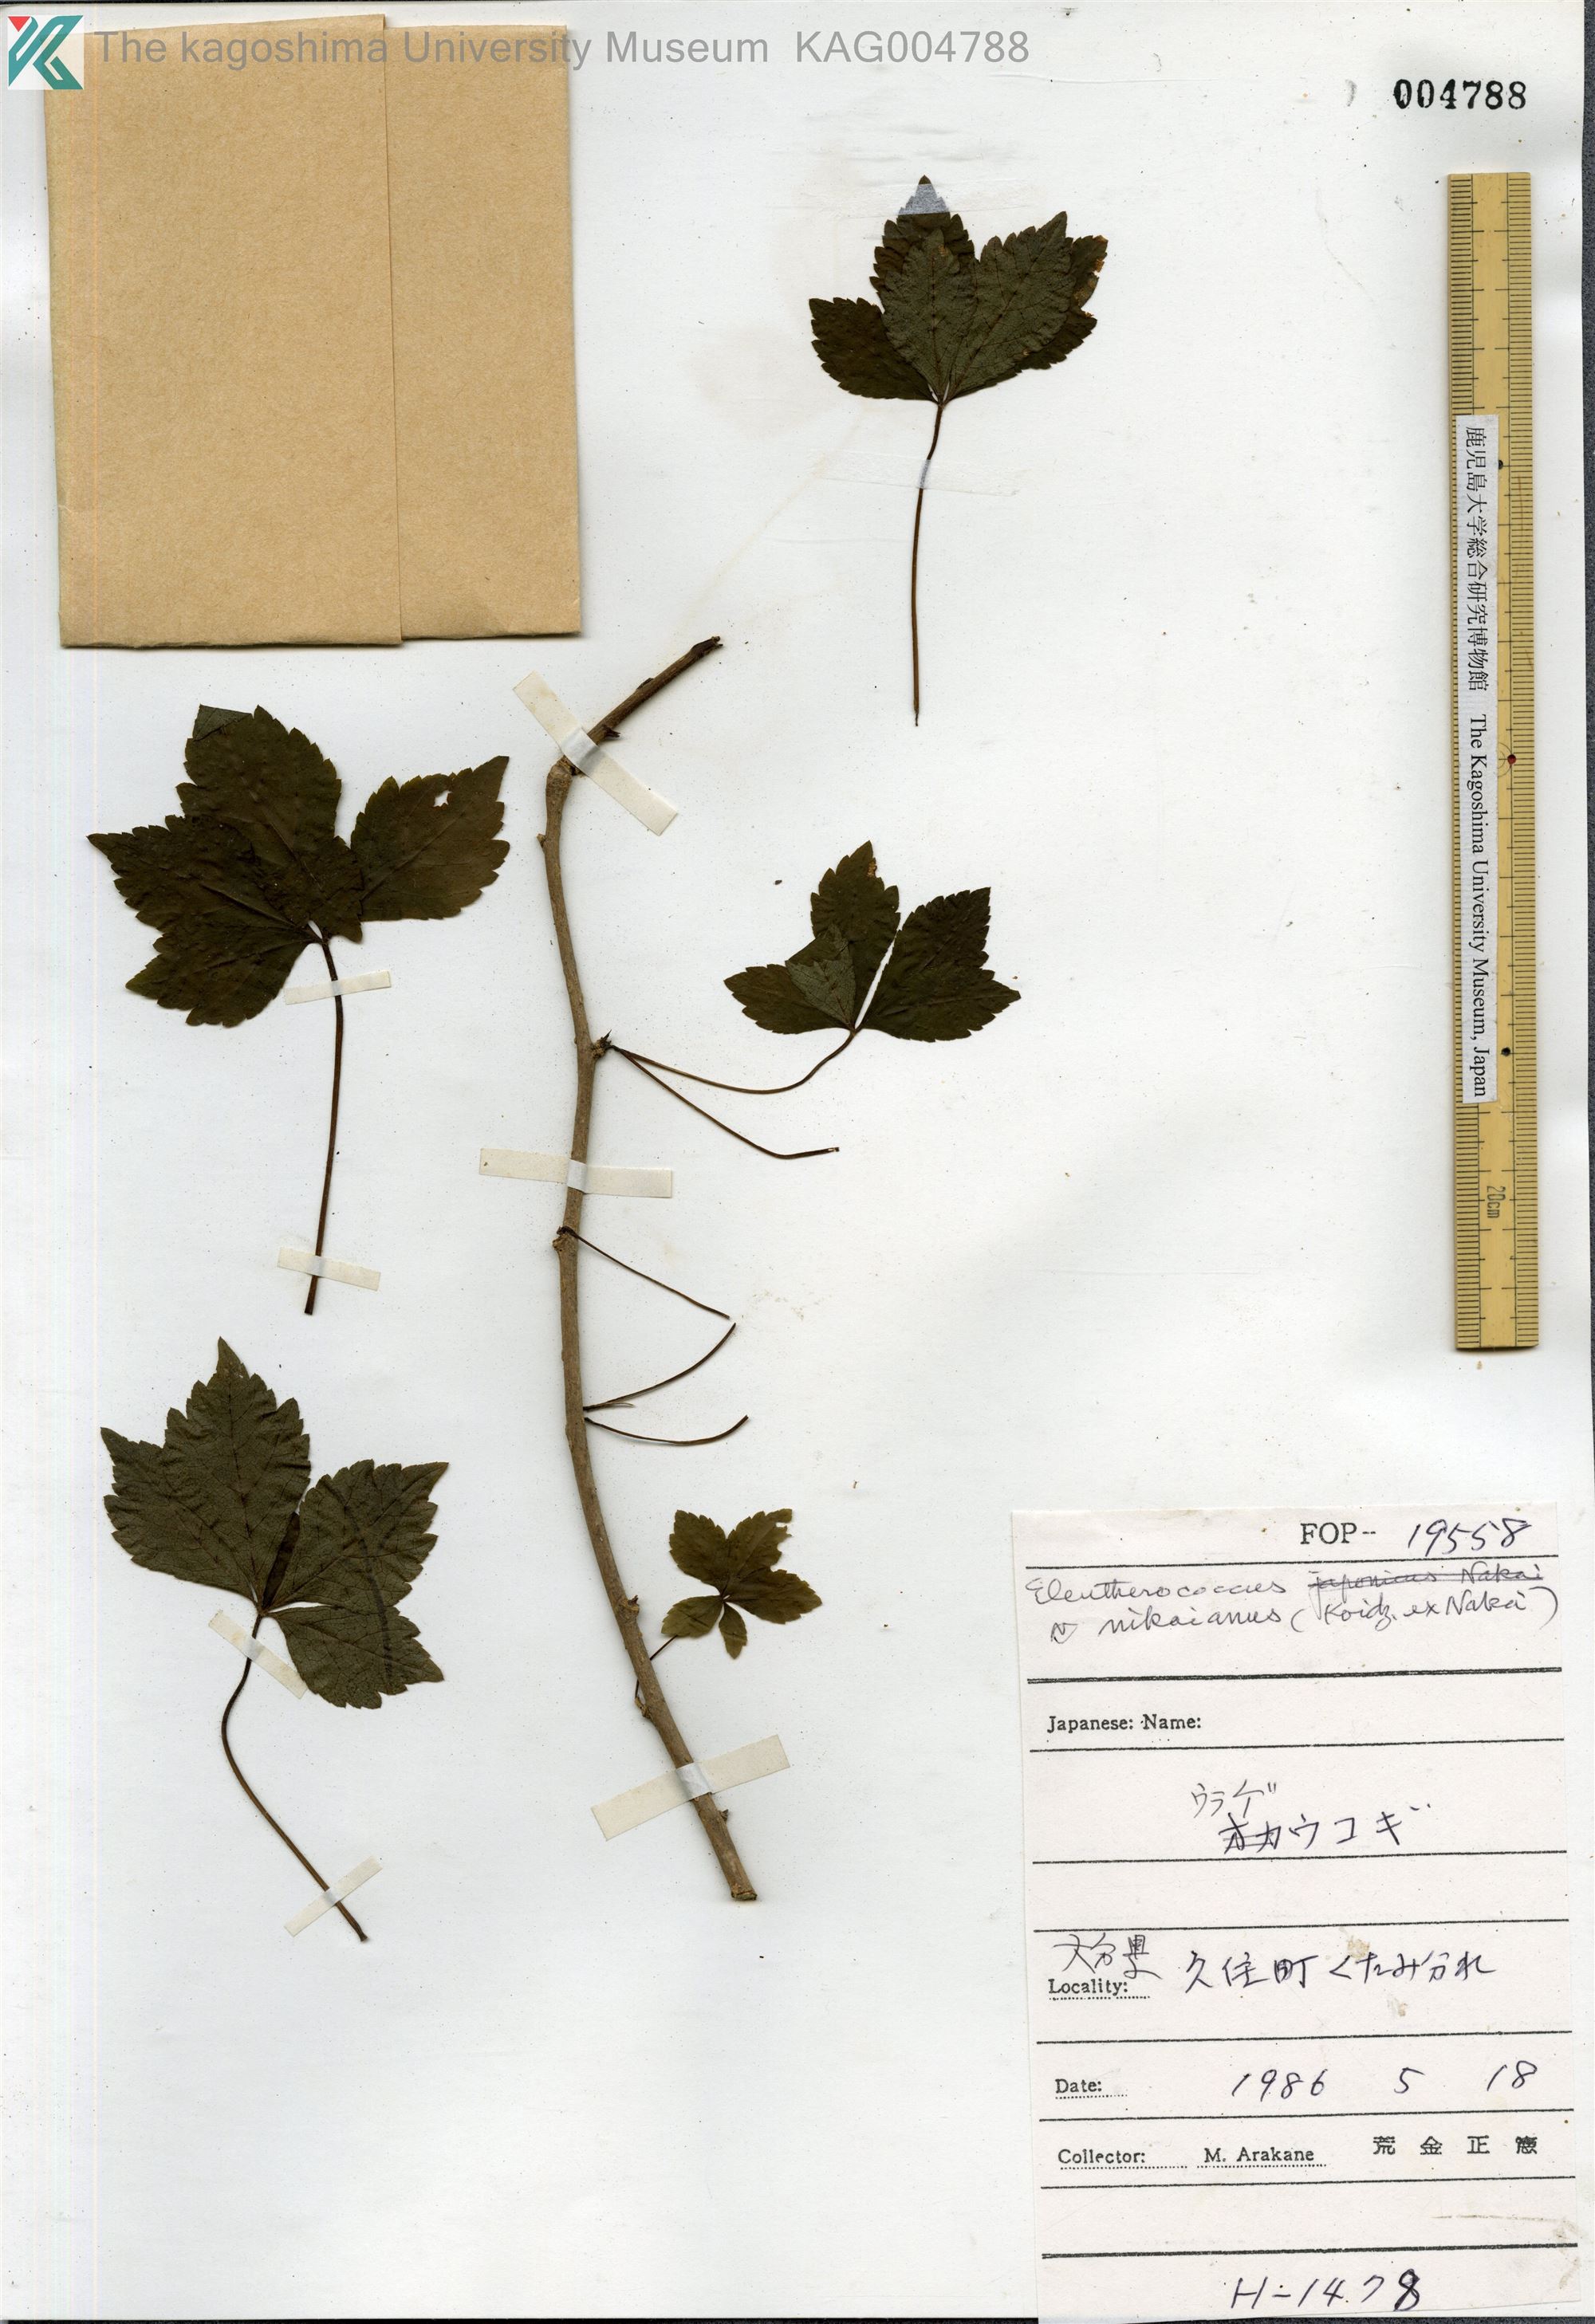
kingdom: Plantae
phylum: Tracheophyta
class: Magnoliopsida
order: Apiales
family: Araliaceae
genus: Eleutherococcus
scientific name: Eleutherococcus nikaianus
